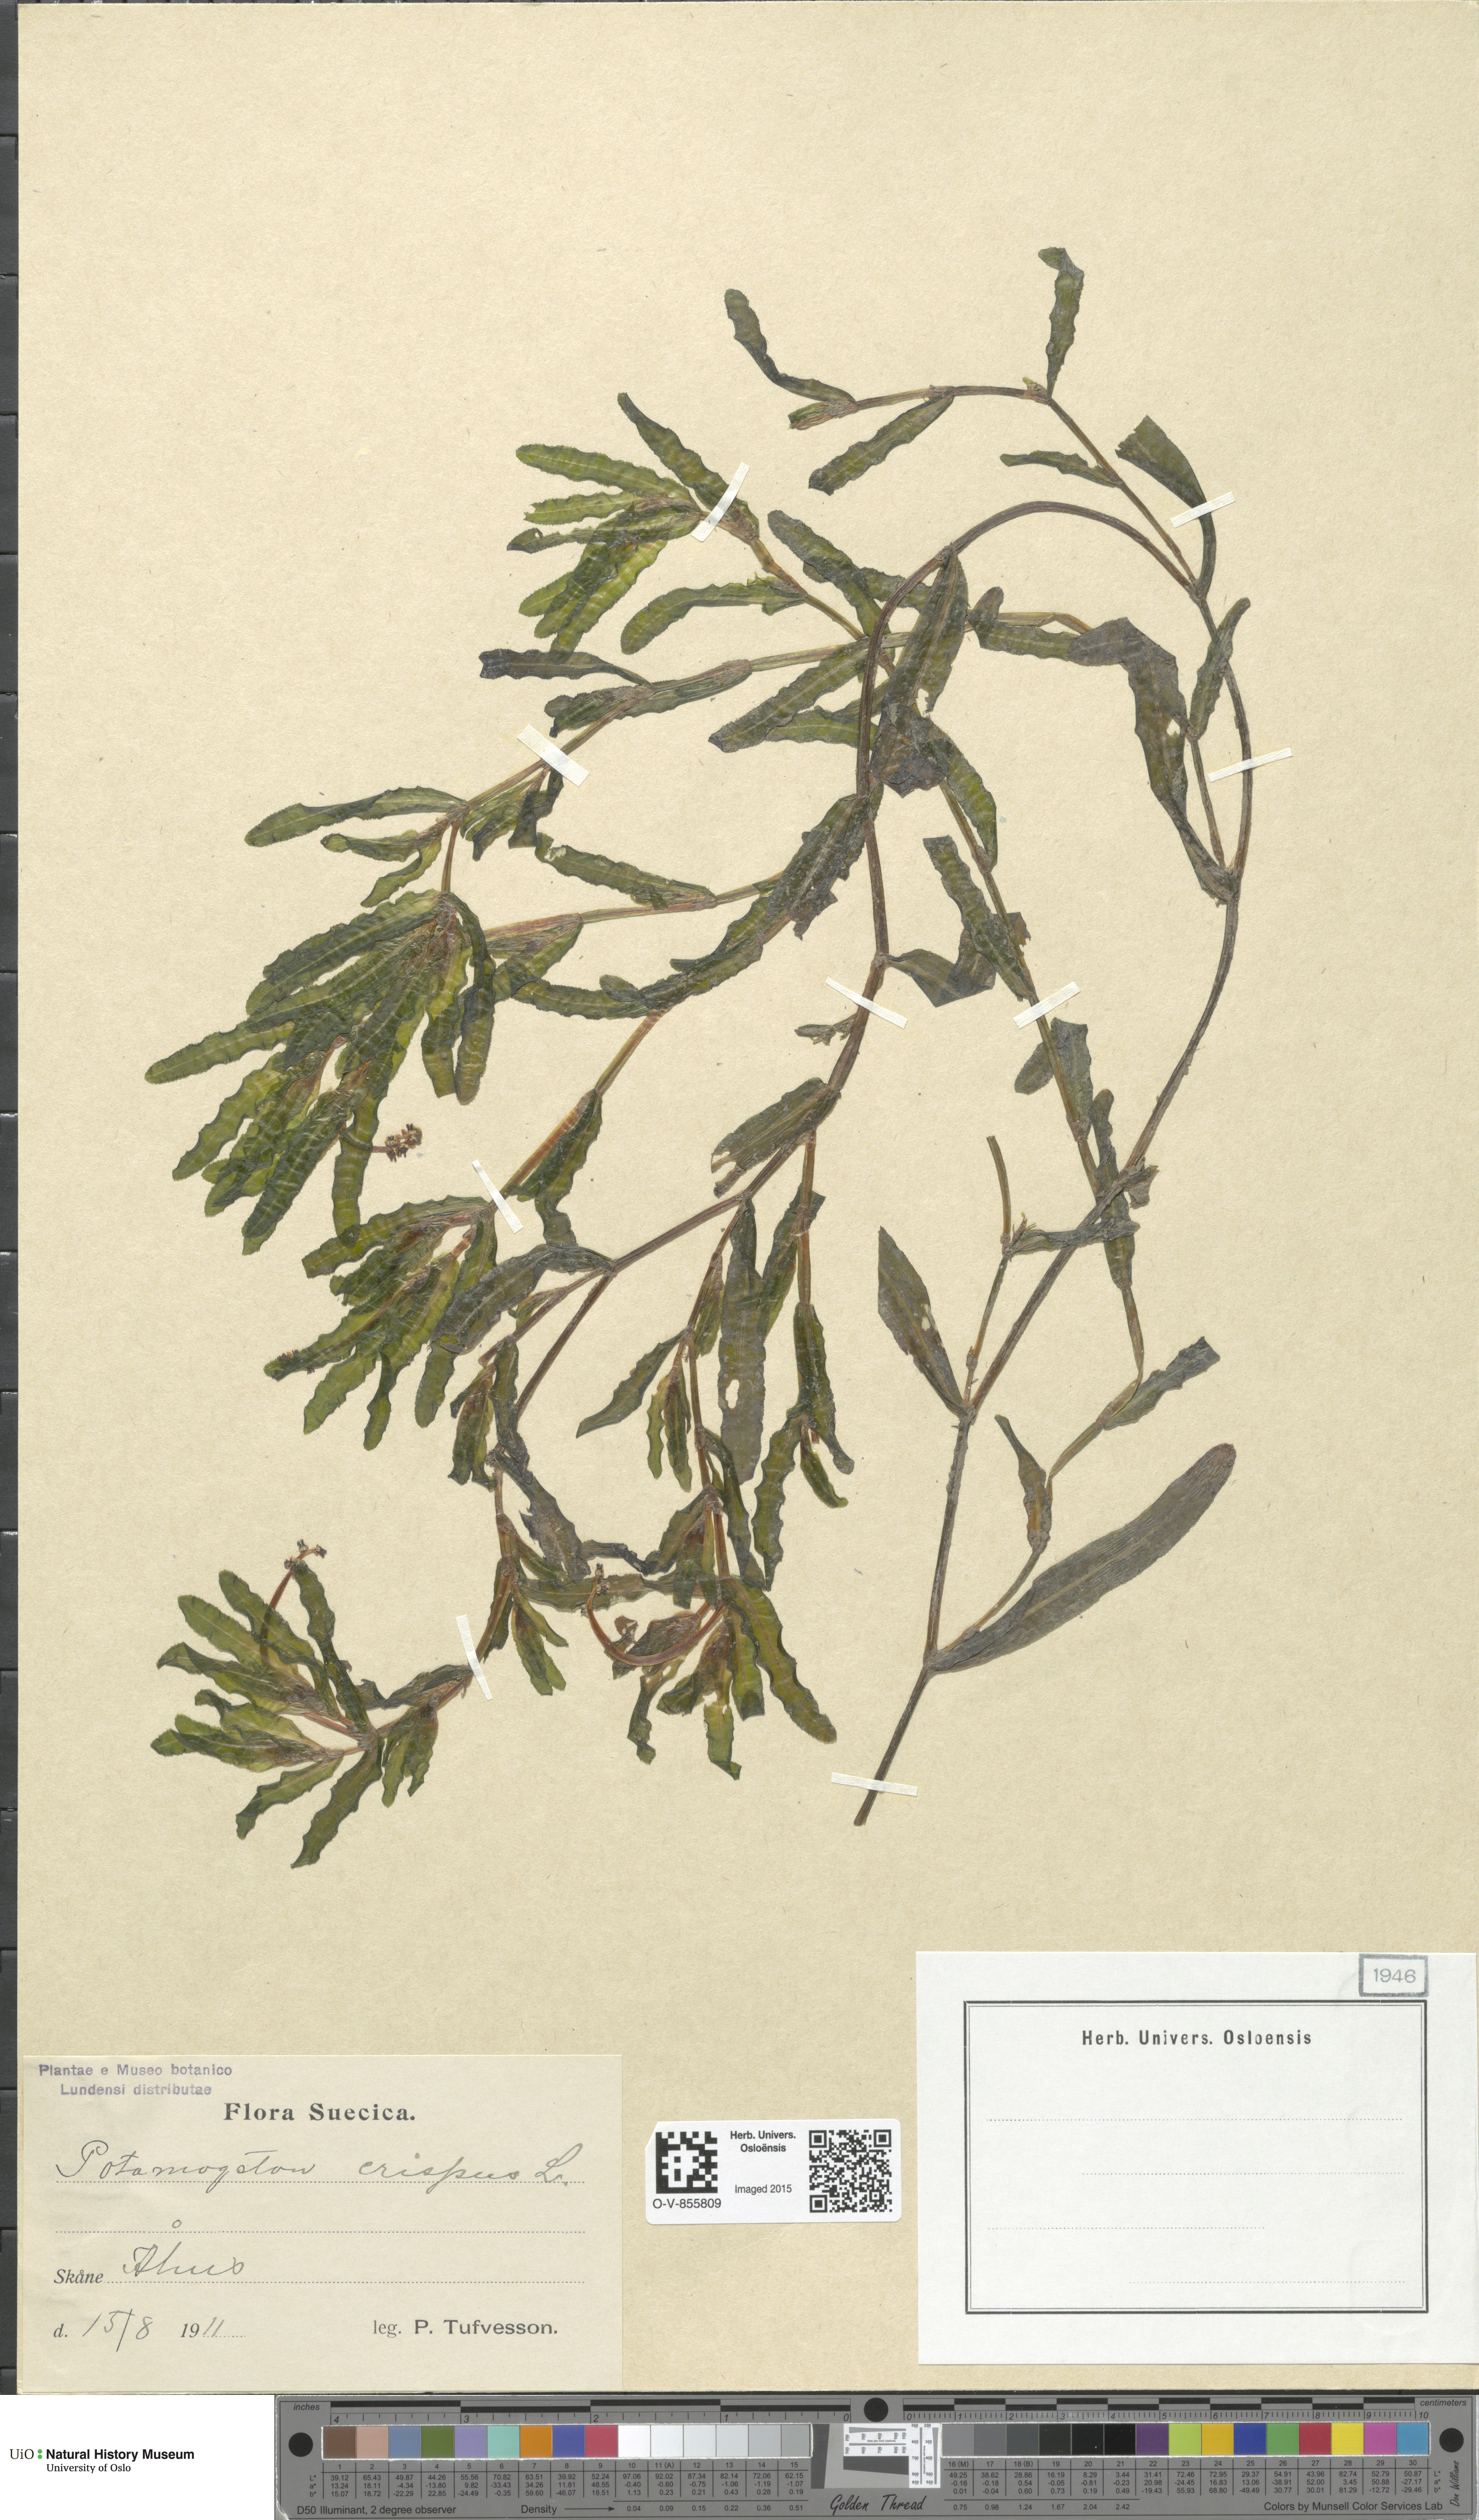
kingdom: Plantae
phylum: Tracheophyta
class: Liliopsida
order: Alismatales
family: Potamogetonaceae
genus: Potamogeton
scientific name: Potamogeton crispus
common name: Curled pondweed
